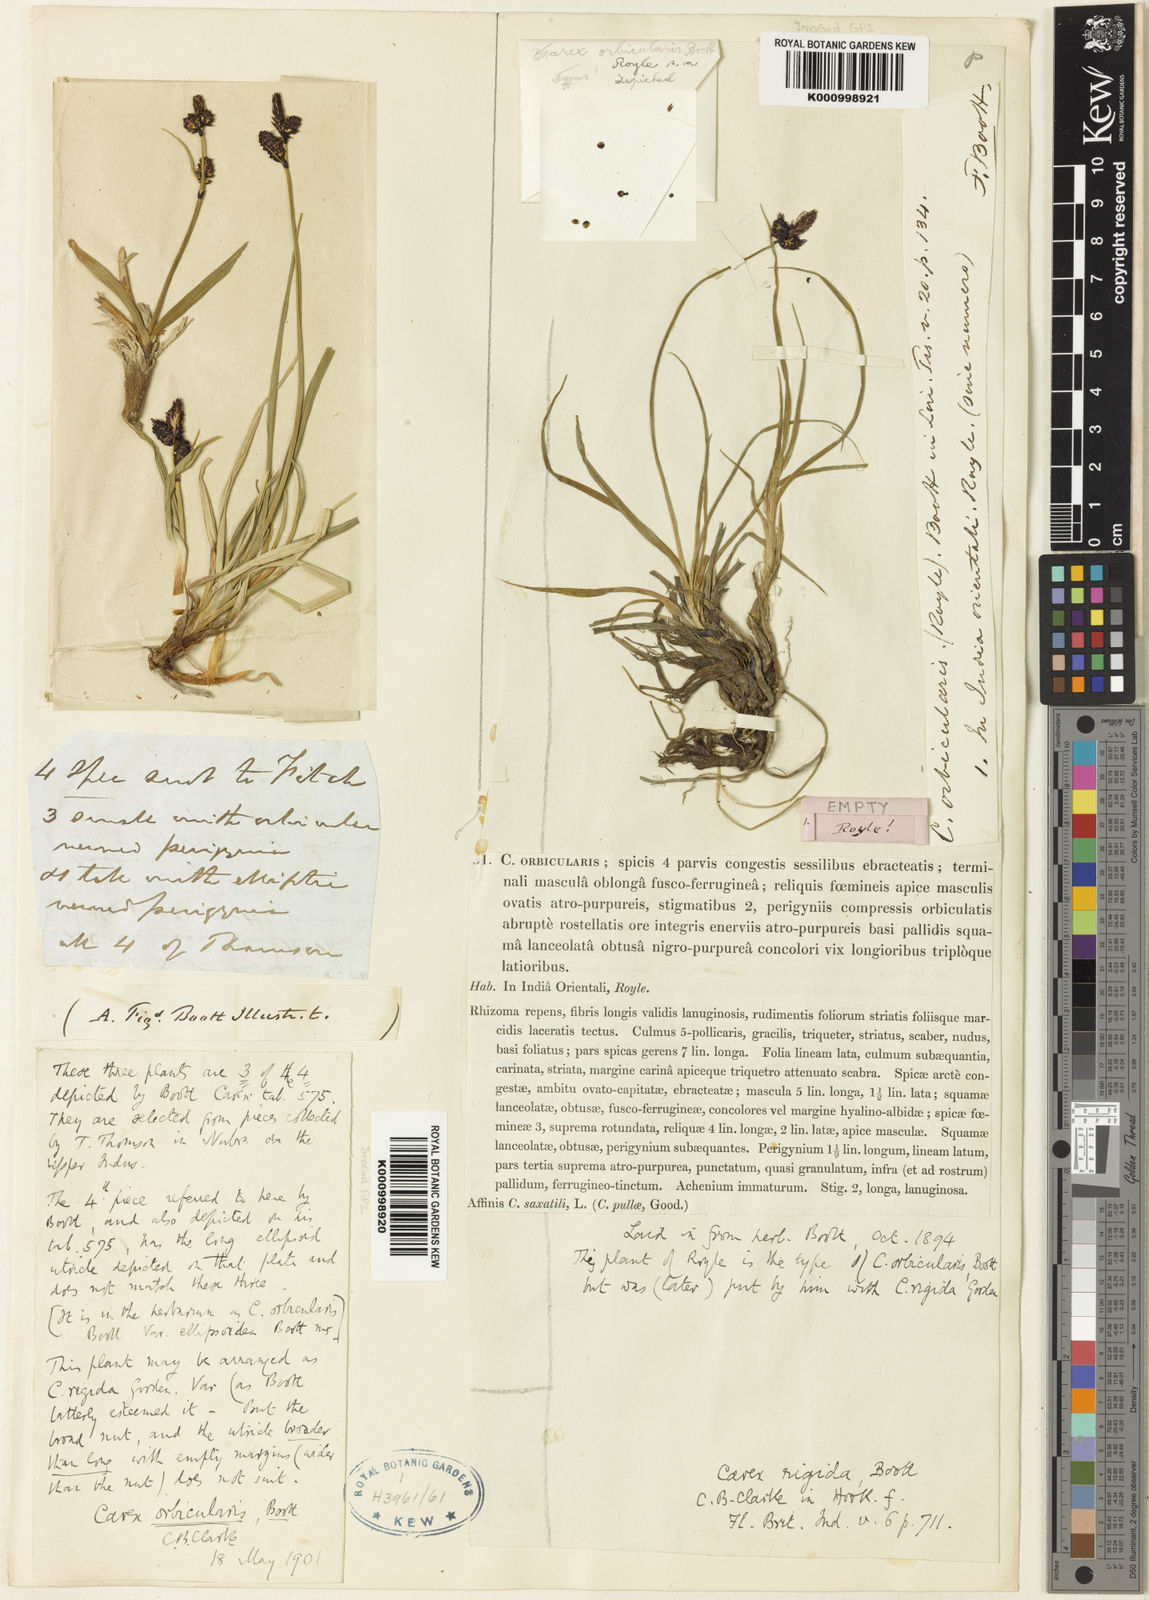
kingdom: Plantae
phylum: Tracheophyta
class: Liliopsida
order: Poales
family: Cyperaceae
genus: Carex
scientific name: Carex orbicularis
